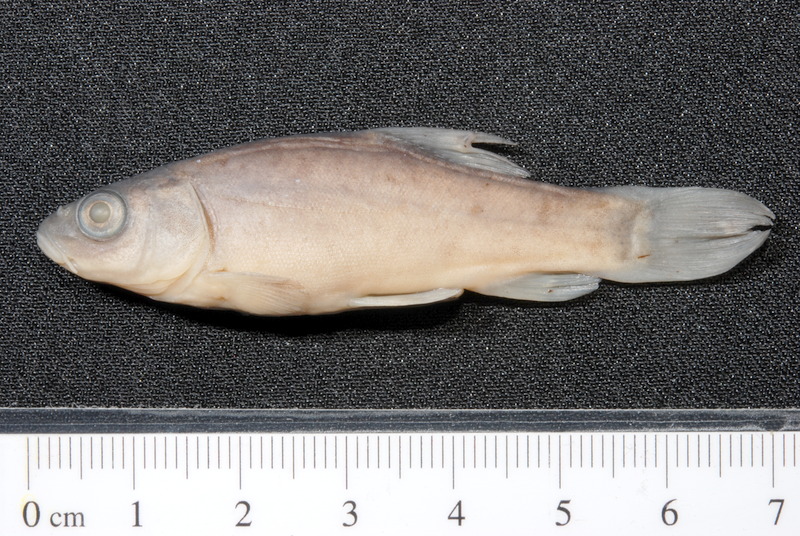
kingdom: Animalia
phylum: Chordata
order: Cypriniformes
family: Cyprinidae
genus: Tinca
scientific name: Tinca tinca
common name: Tench
